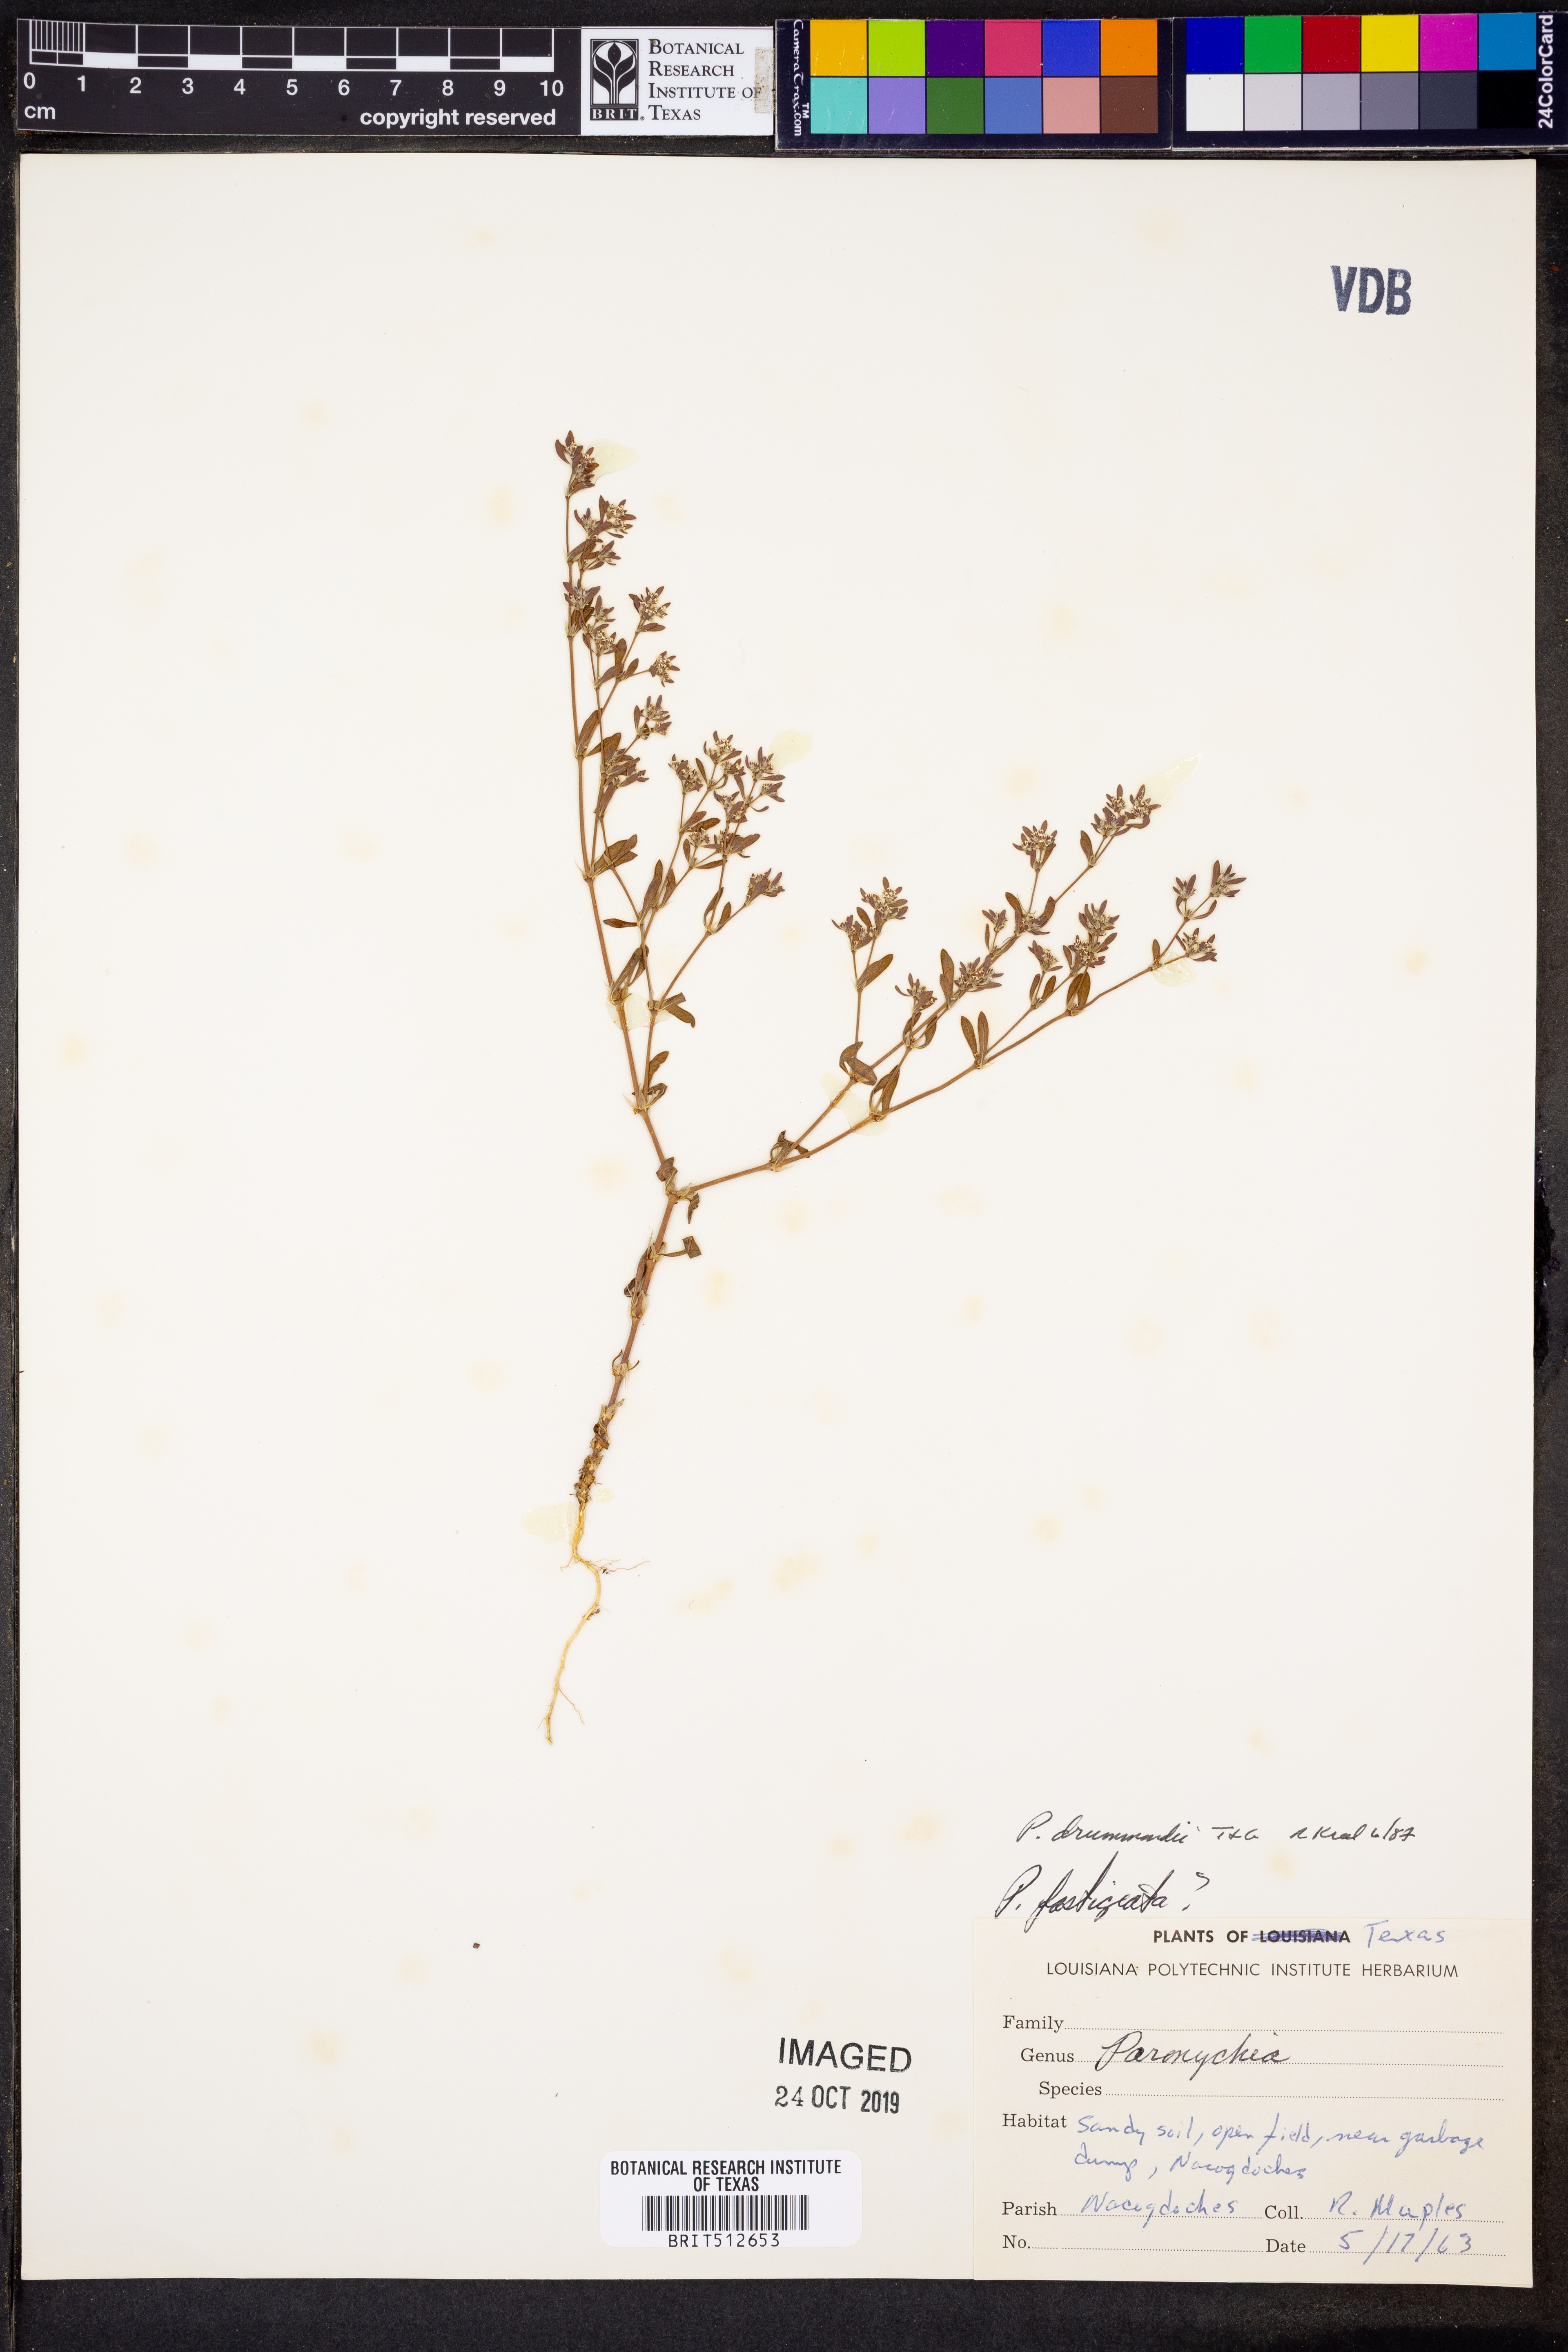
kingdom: Plantae
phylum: Tracheophyta
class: Magnoliopsida
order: Caryophyllales
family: Caryophyllaceae
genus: Paronychia
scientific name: Paronychia drummondii
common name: Drummond's nailwort
